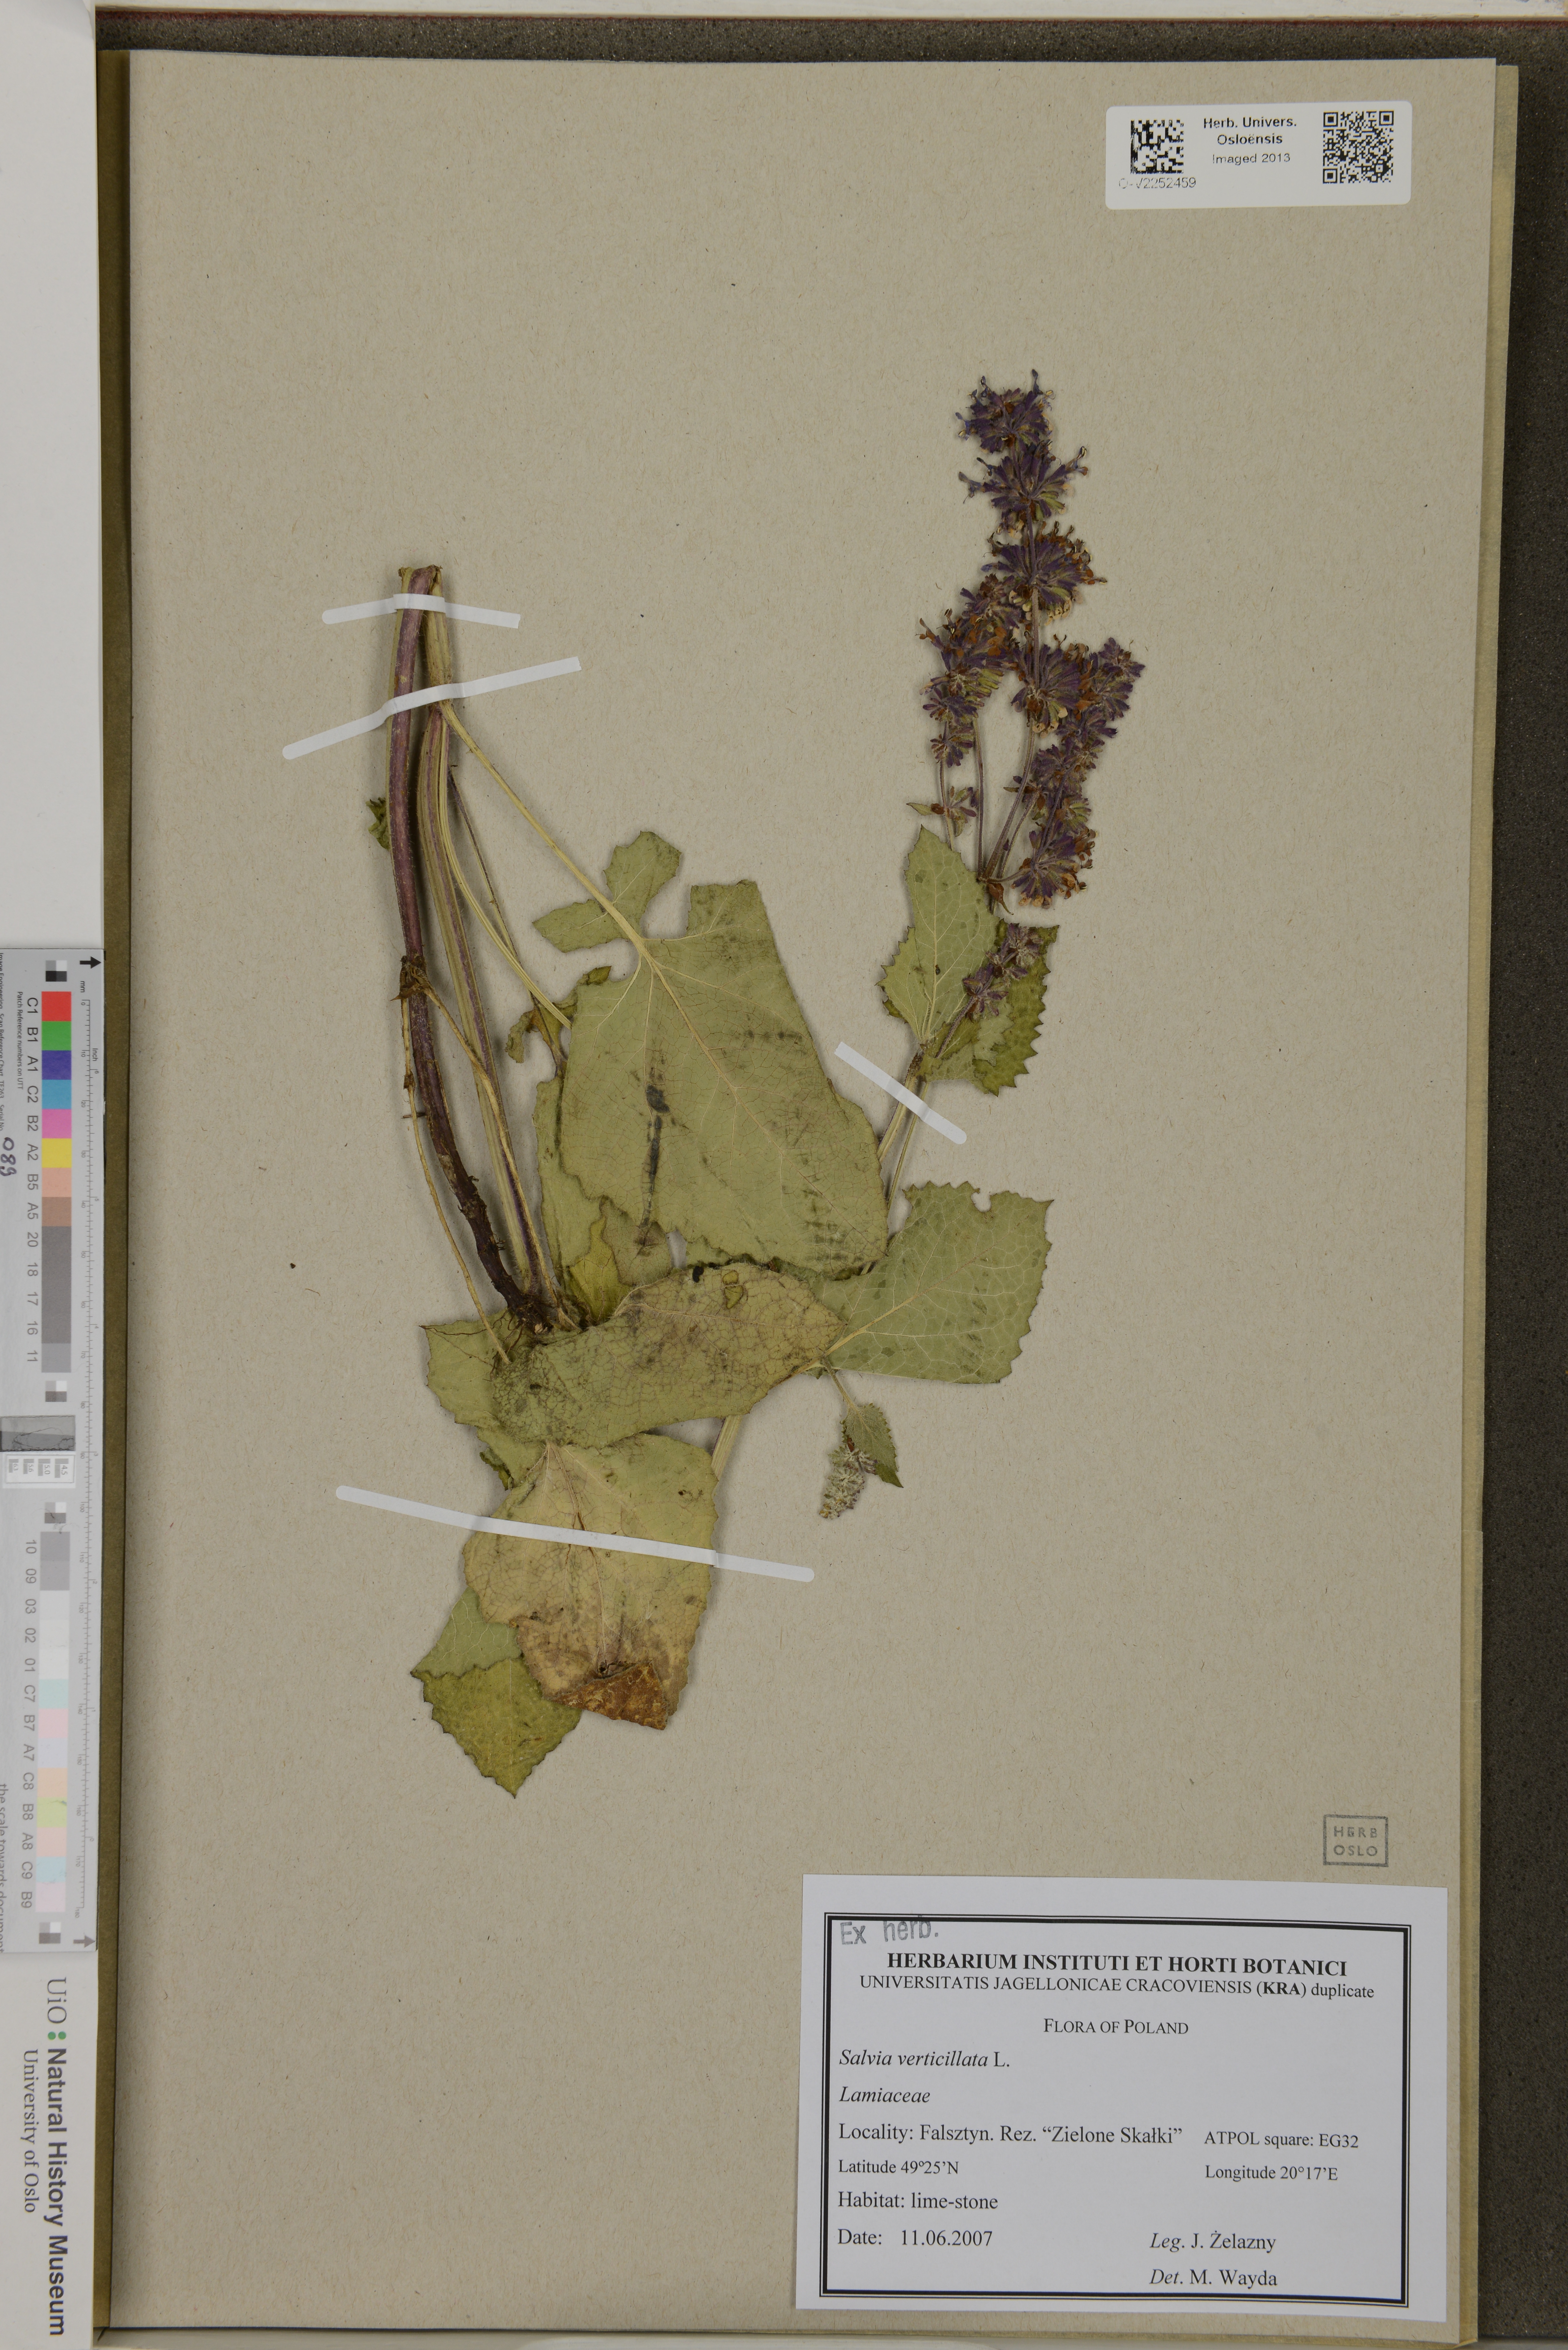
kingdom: Plantae
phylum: Tracheophyta
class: Magnoliopsida
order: Lamiales
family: Lamiaceae
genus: Salvia
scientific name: Salvia verticillata
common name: Whorled clary
